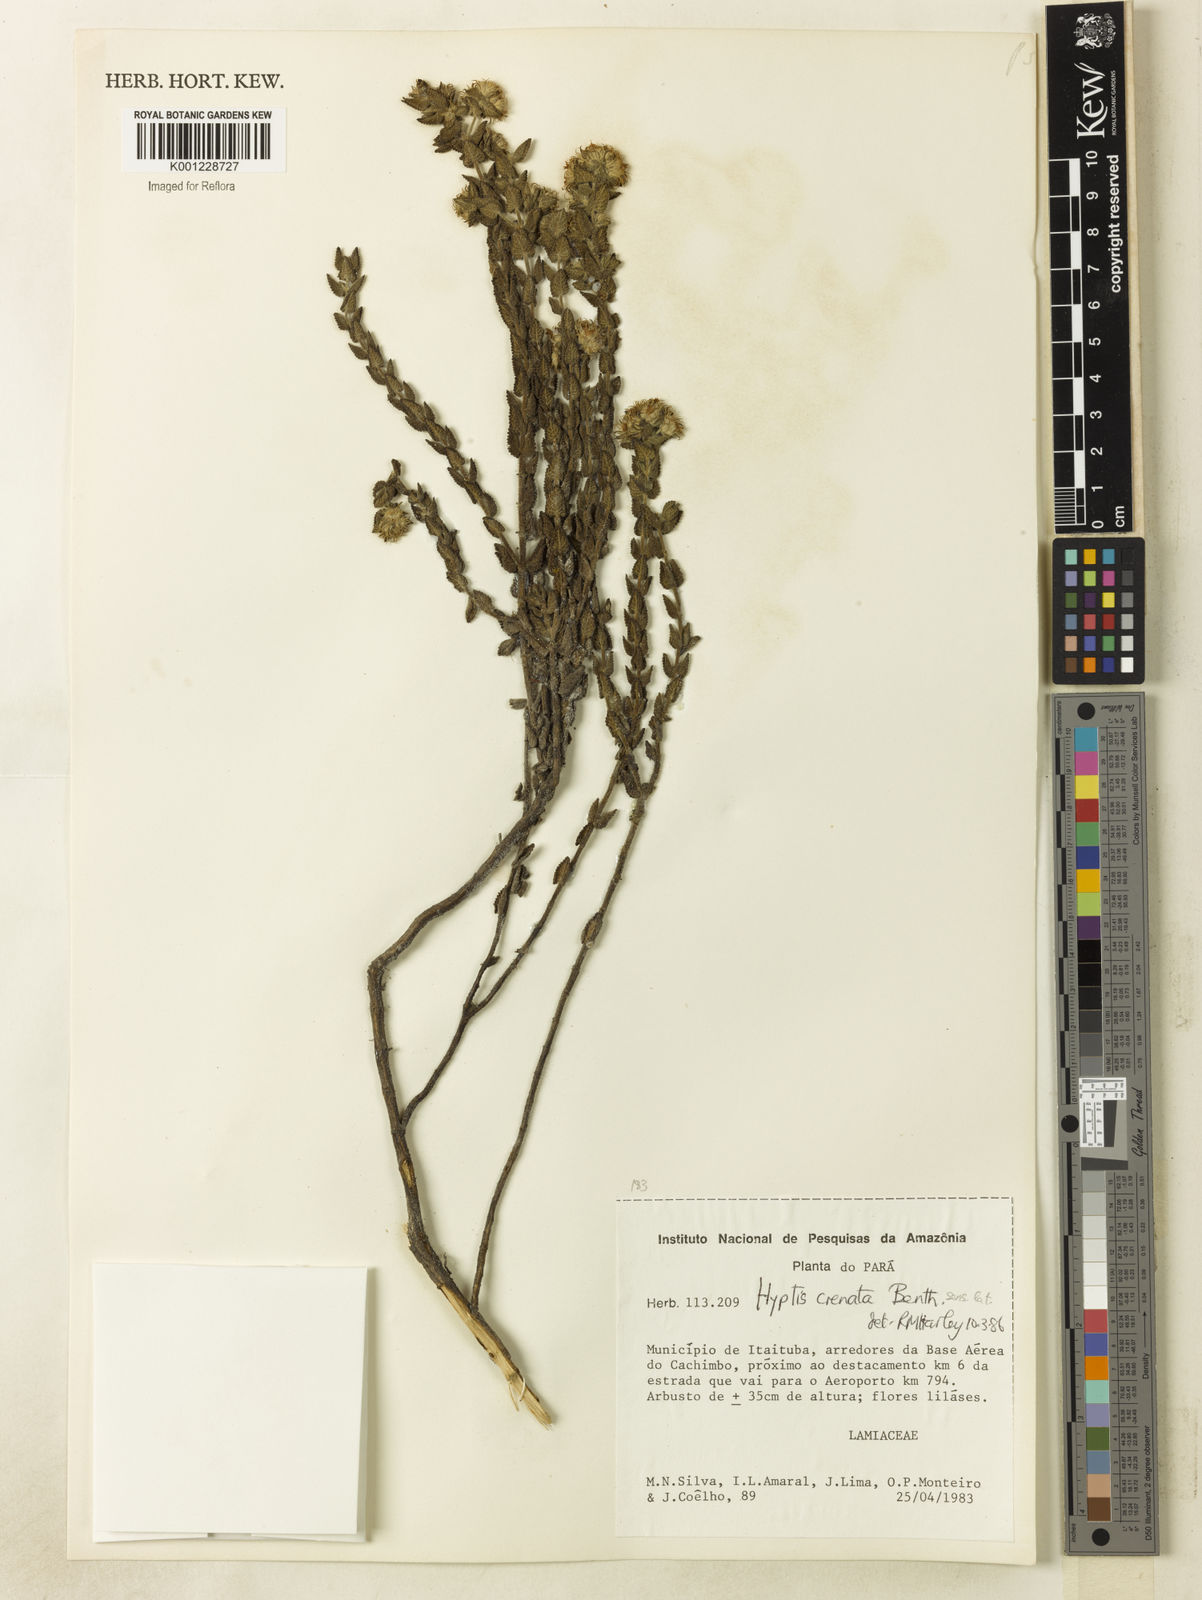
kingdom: Plantae
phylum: Tracheophyta
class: Magnoliopsida
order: Lamiales
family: Lamiaceae
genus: Hyptis
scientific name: Hyptis crenata
